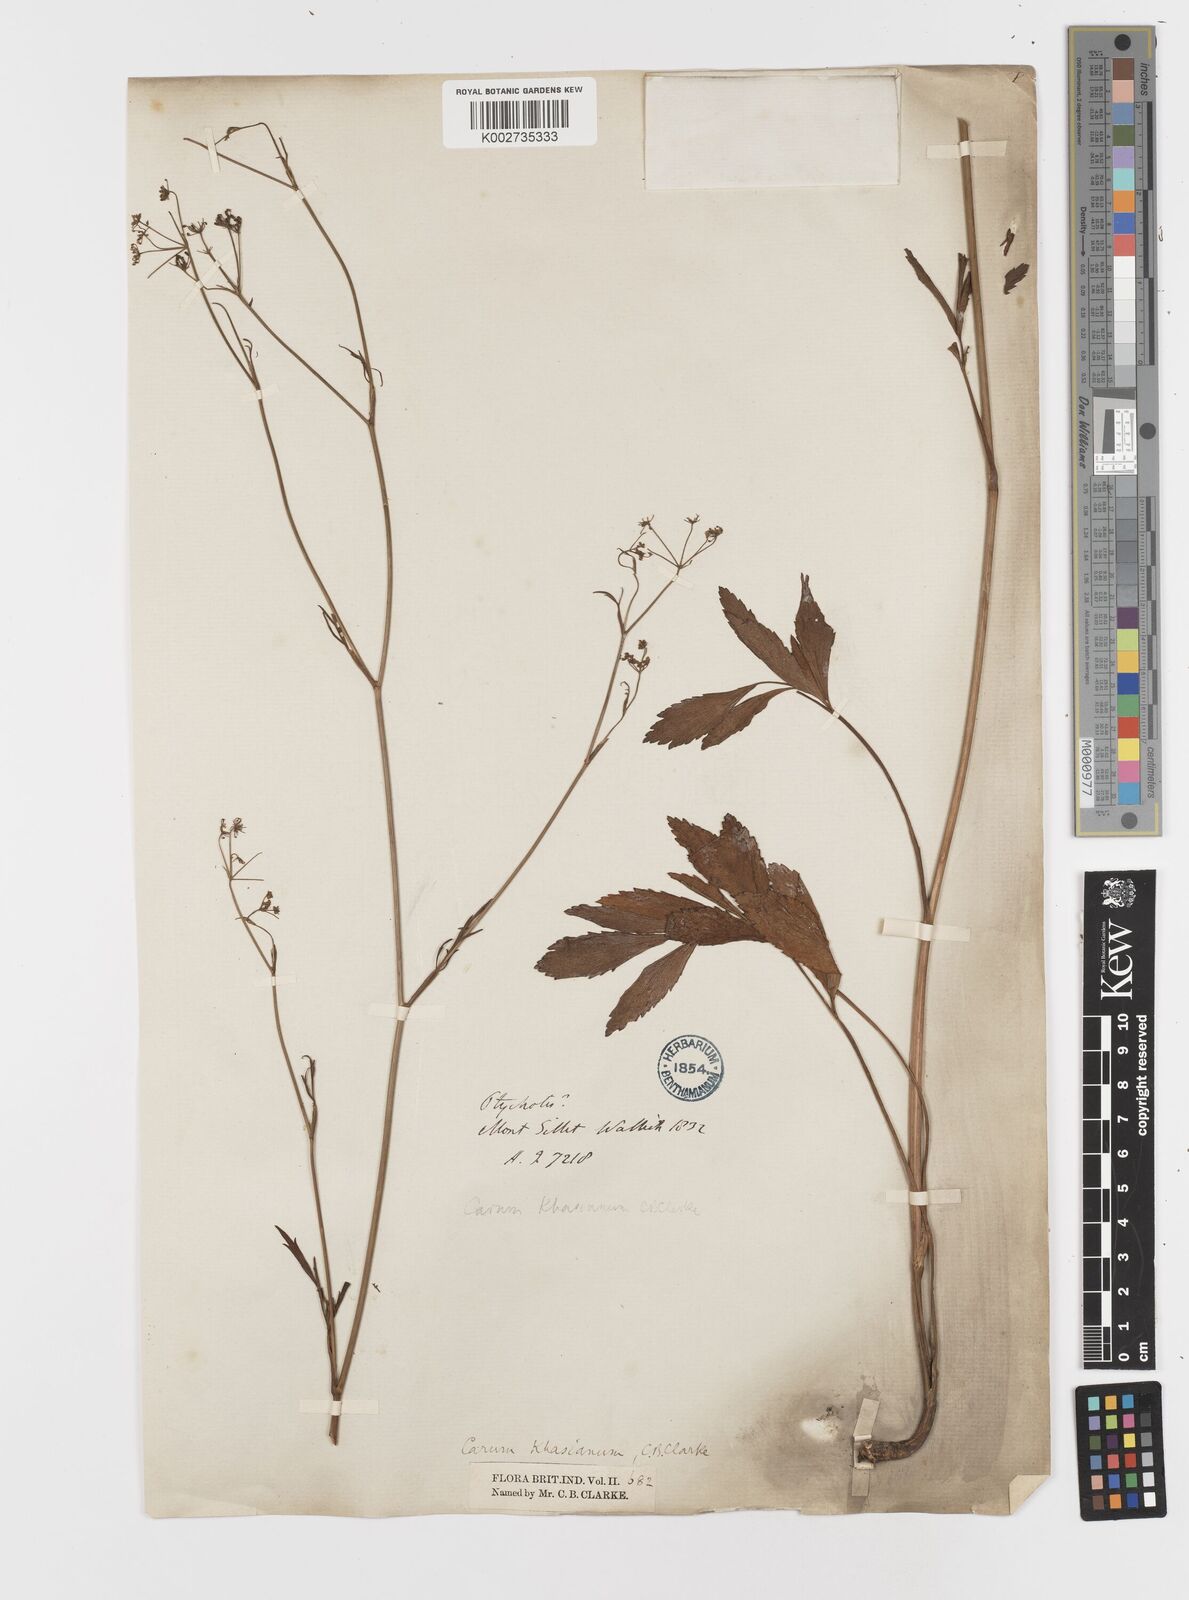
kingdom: Plantae
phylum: Tracheophyta
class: Magnoliopsida
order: Apiales
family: Apiaceae
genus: Trachyspermum
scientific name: Trachyspermum khasianum
